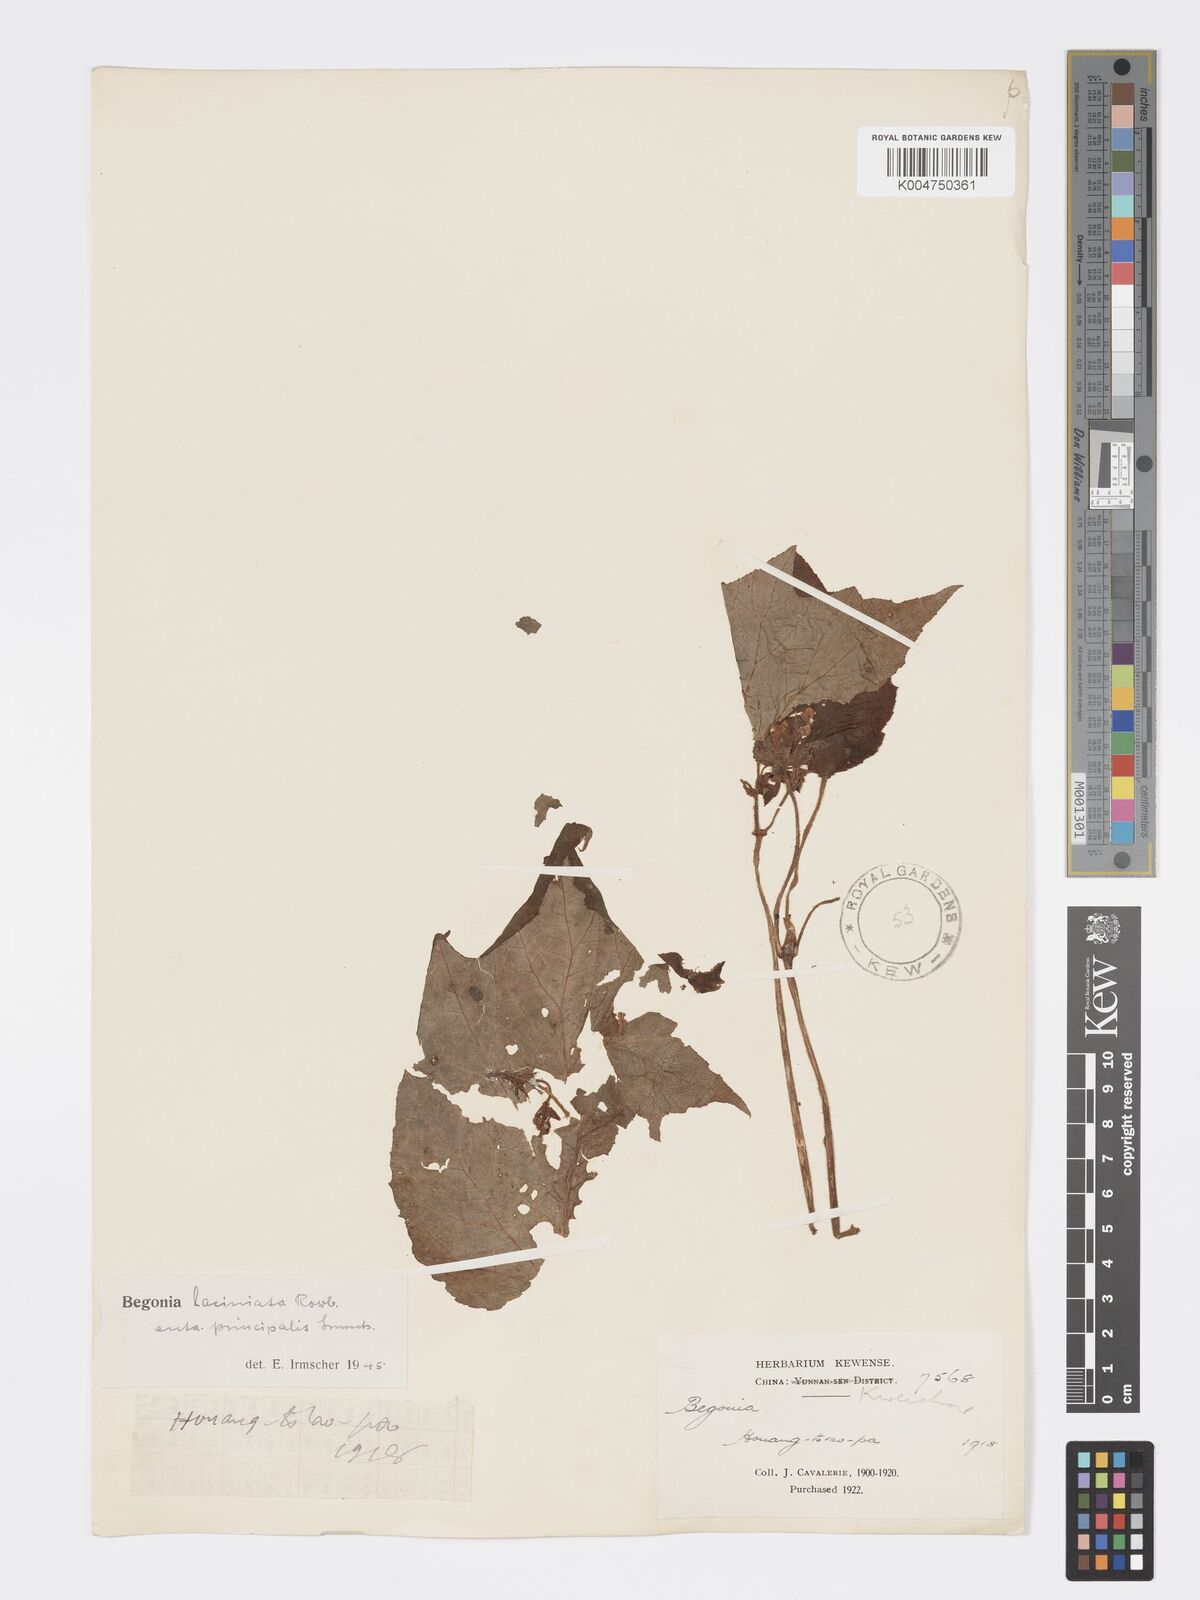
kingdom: Plantae
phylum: Tracheophyta
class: Magnoliopsida
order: Cucurbitales
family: Begoniaceae
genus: Begonia
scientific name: Begonia palmata
